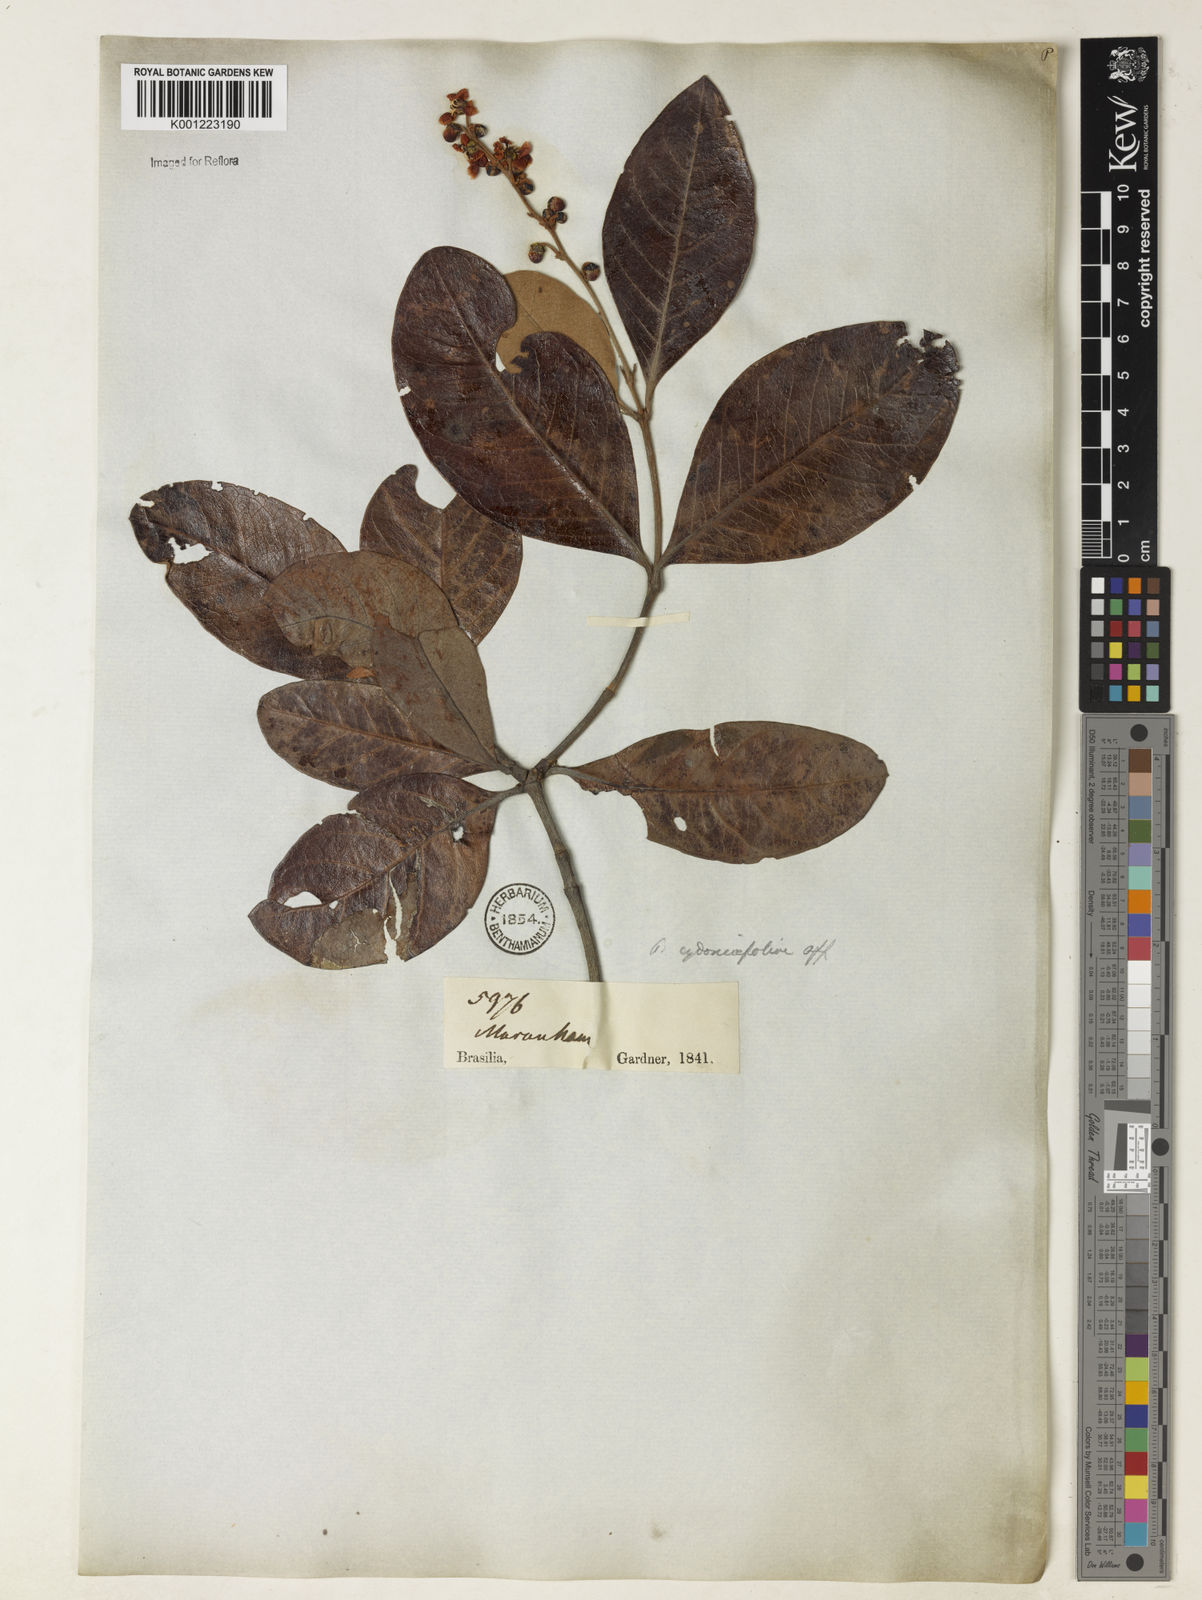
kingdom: Plantae
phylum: Tracheophyta
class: Magnoliopsida
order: Malpighiales
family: Malpighiaceae
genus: Byrsonima
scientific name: Byrsonima
